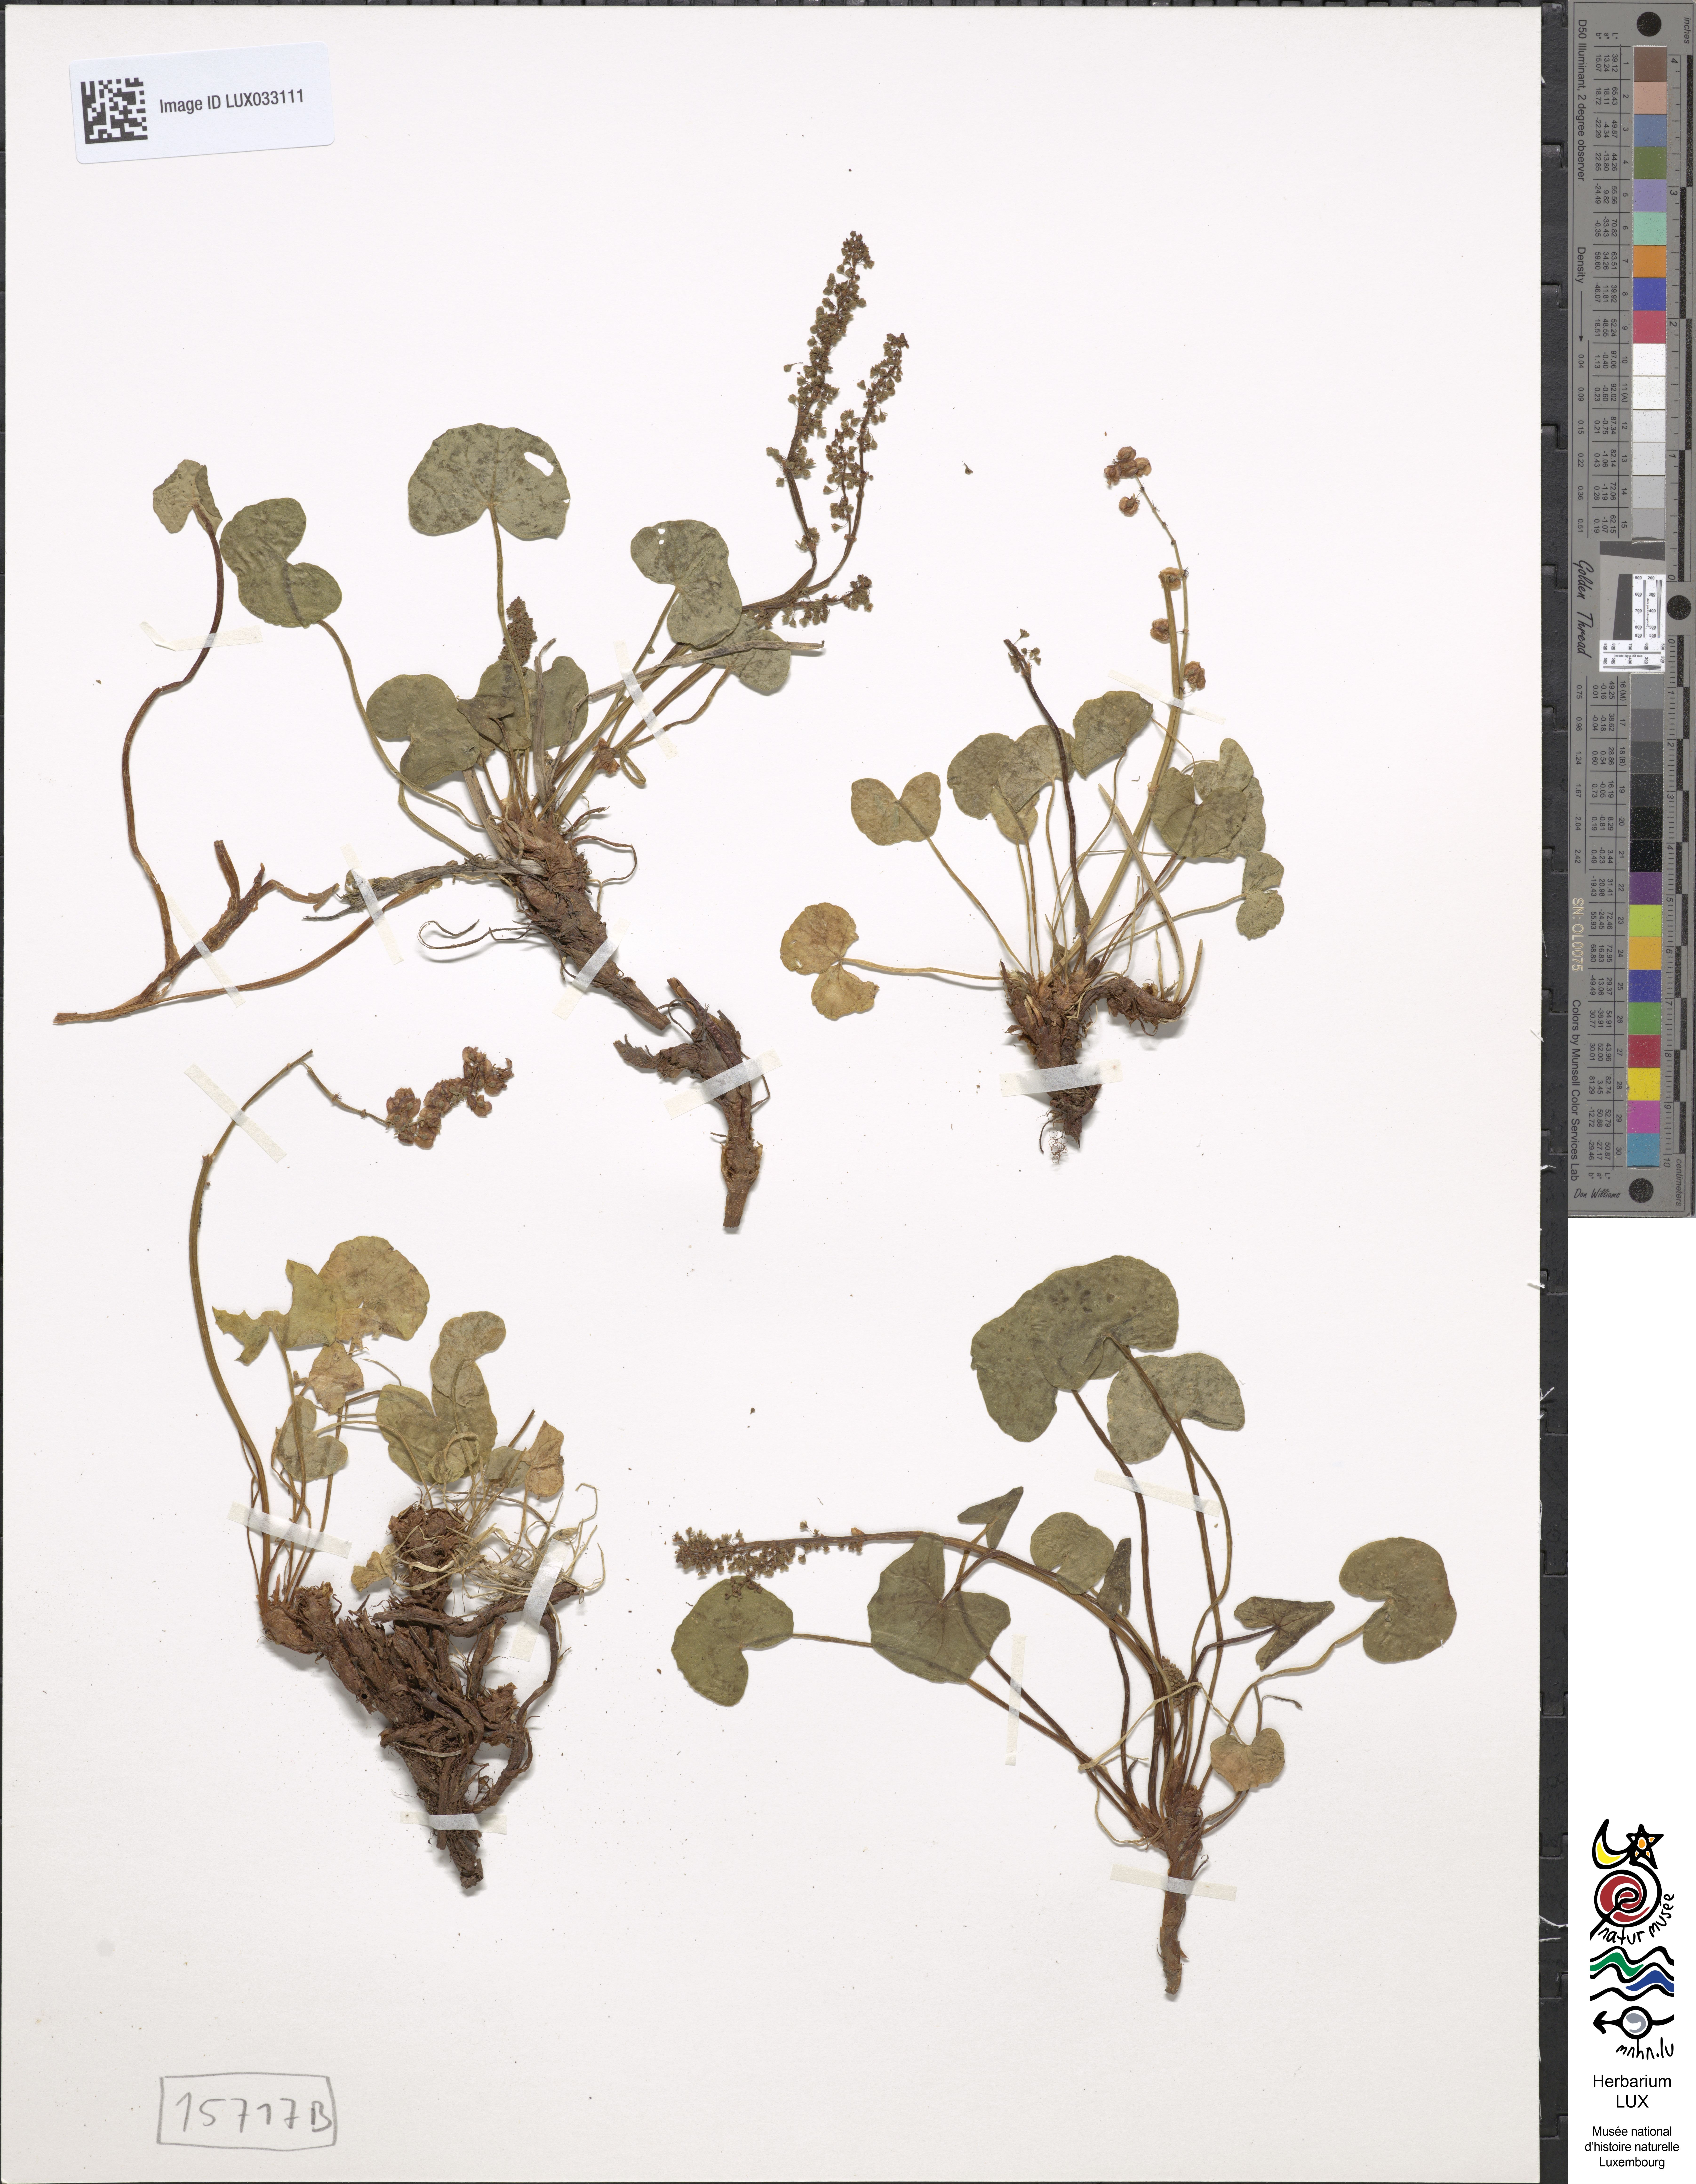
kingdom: Plantae
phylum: Tracheophyta
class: Magnoliopsida
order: Caryophyllales
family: Polygonaceae
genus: Oxyria
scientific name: Oxyria digyna
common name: Alpine mountain-sorrel
